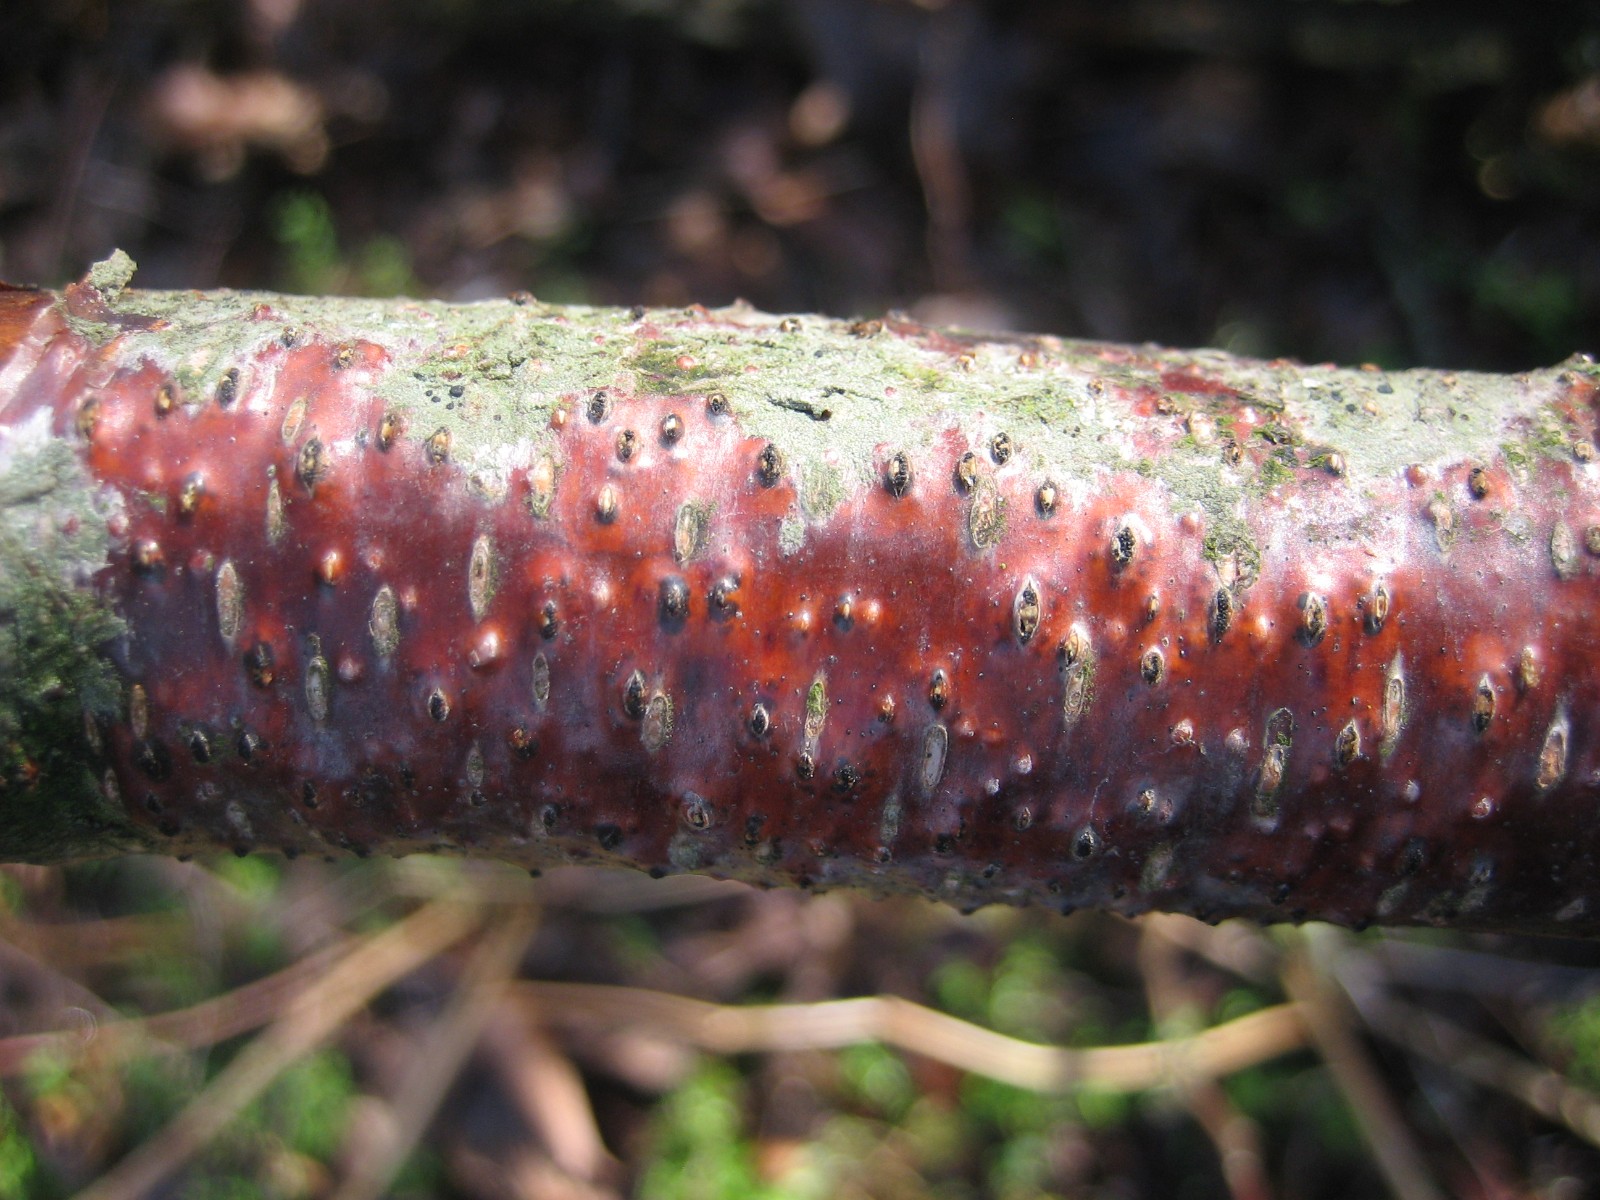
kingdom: Fungi
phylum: Ascomycota
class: Sordariomycetes
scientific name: Sordariomycetes
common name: kernesvampklassen
